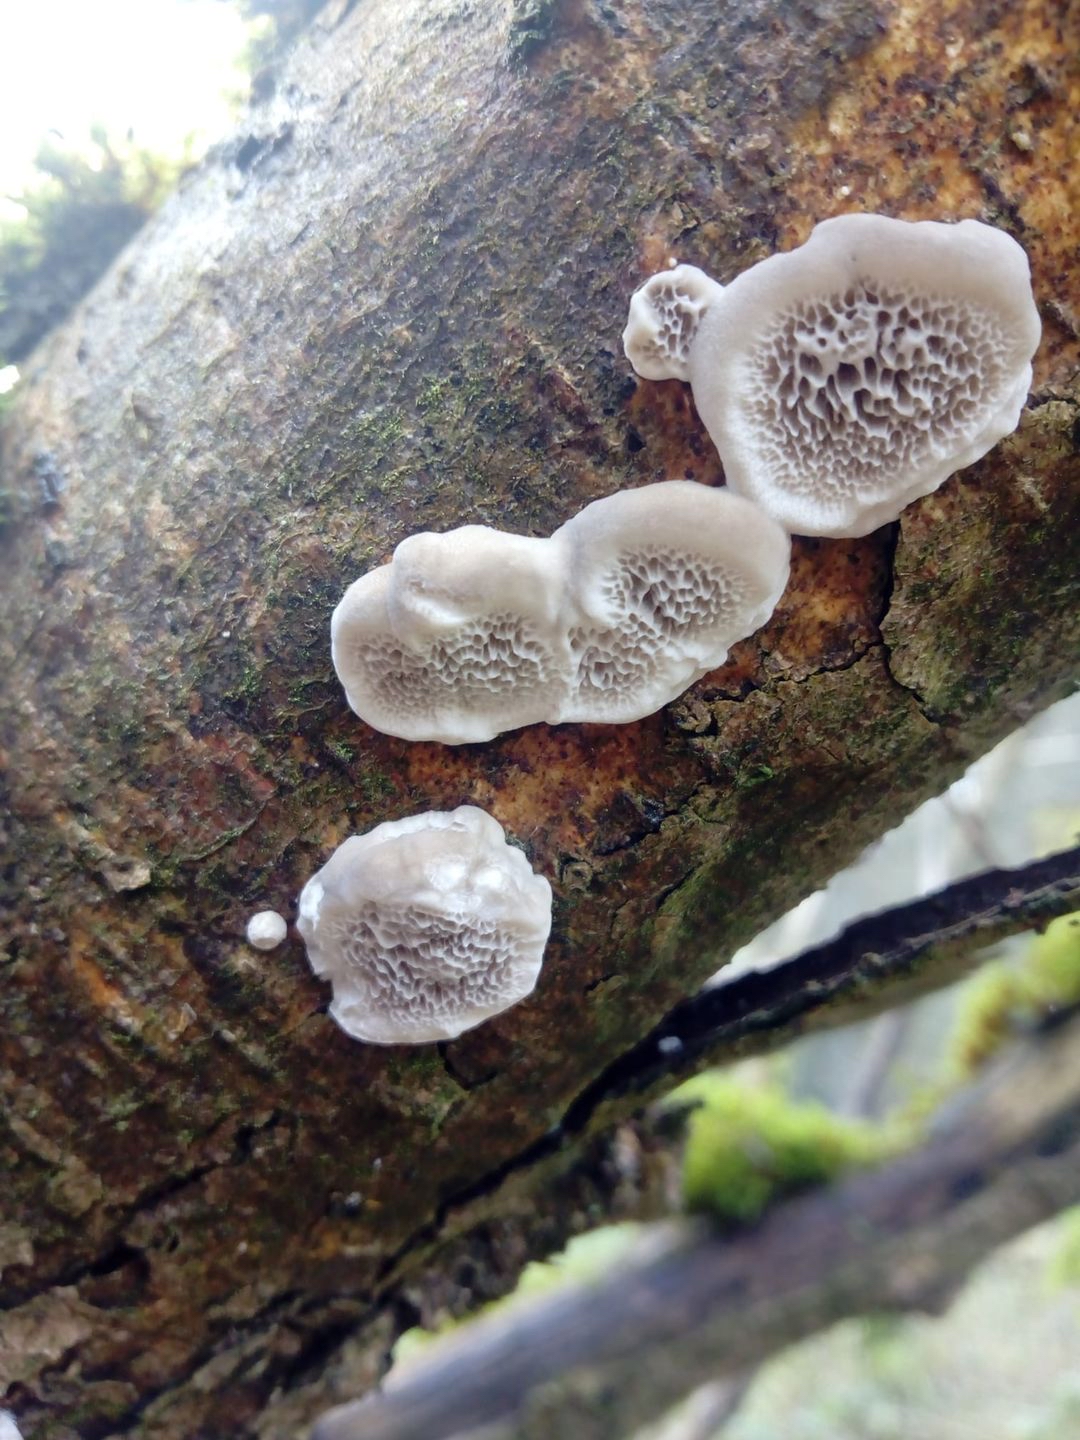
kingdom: Fungi
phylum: Basidiomycota
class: Agaricomycetes
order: Polyporales
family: Polyporaceae
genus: Podofomes
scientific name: Podofomes mollis
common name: blød begporesvamp
